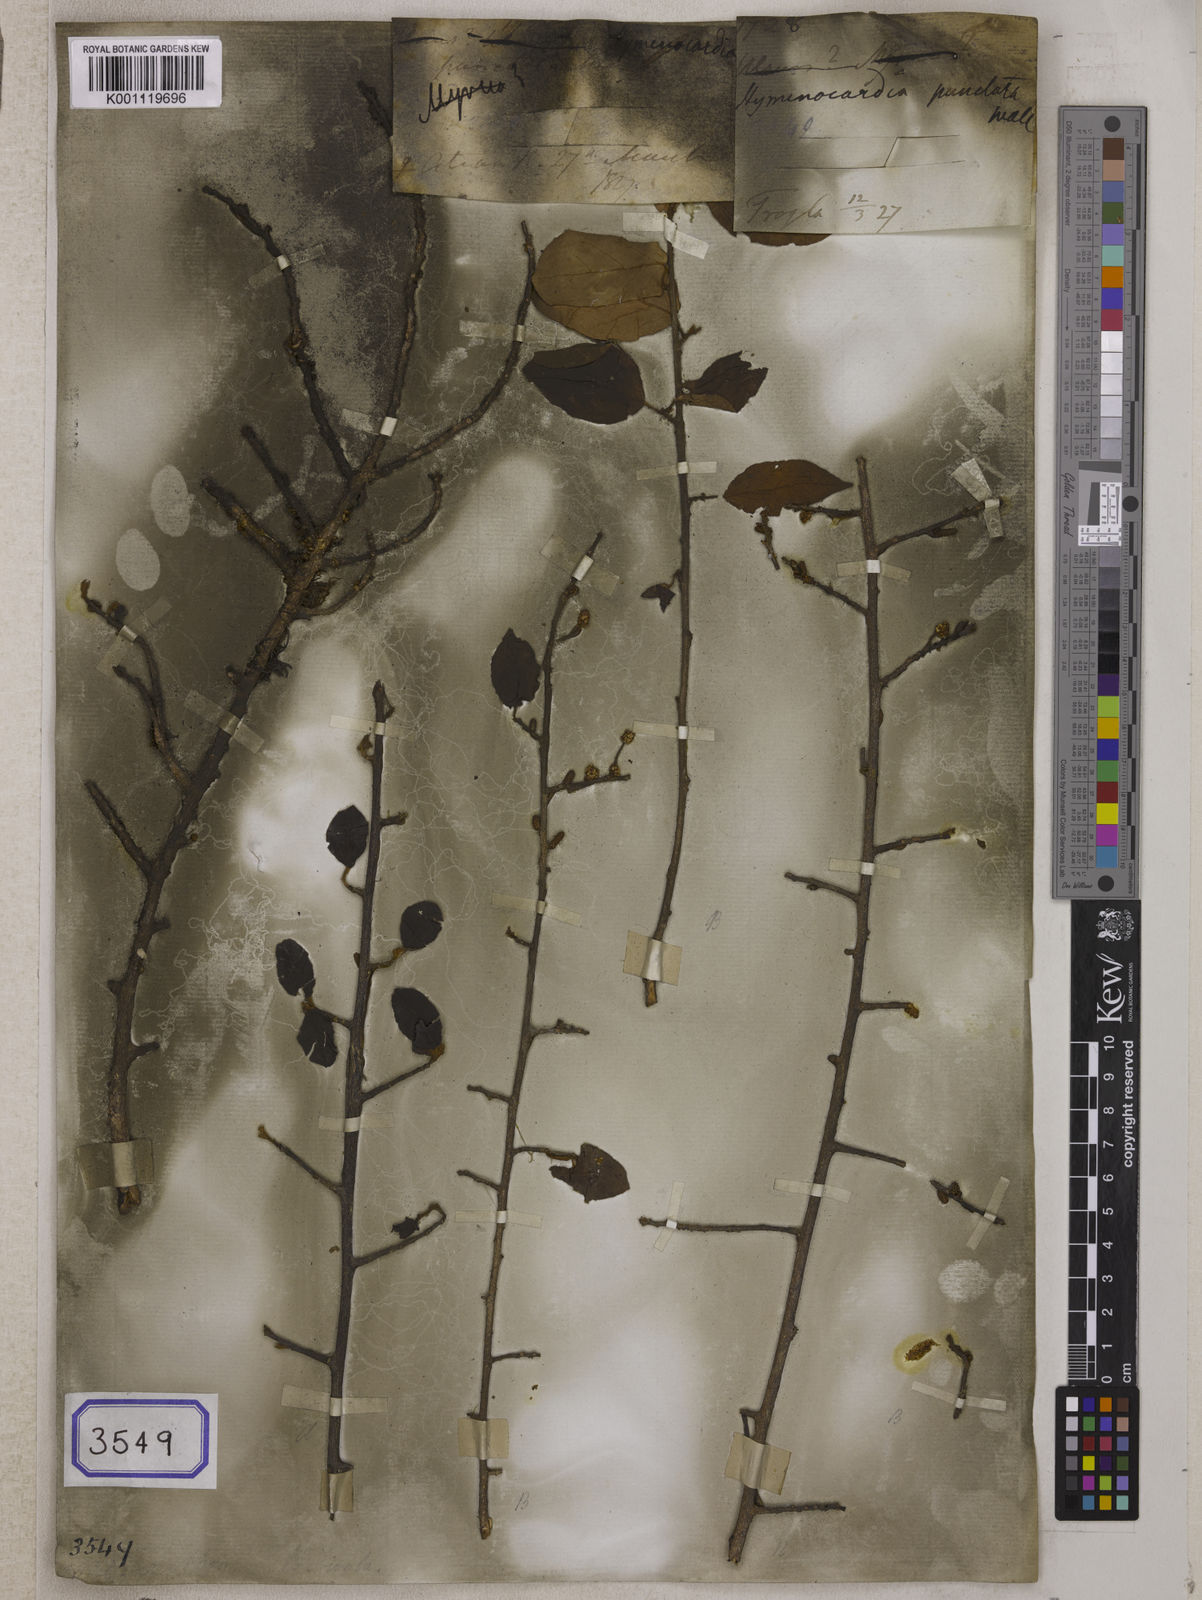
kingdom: Plantae
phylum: Tracheophyta
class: Magnoliopsida
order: Malpighiales
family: Phyllanthaceae
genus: Hymenocardia
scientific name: Hymenocardia
